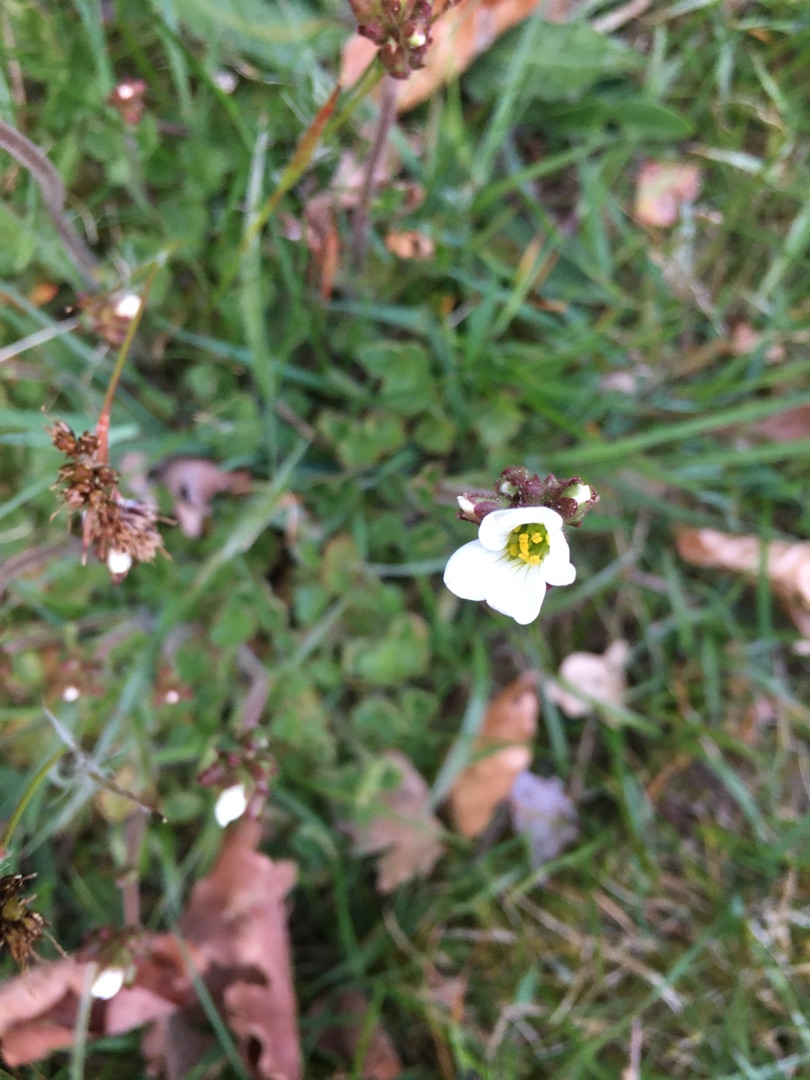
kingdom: Plantae
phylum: Tracheophyta
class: Magnoliopsida
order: Saxifragales
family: Saxifragaceae
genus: Saxifraga
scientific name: Saxifraga granulata
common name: Kornet stenbræk
